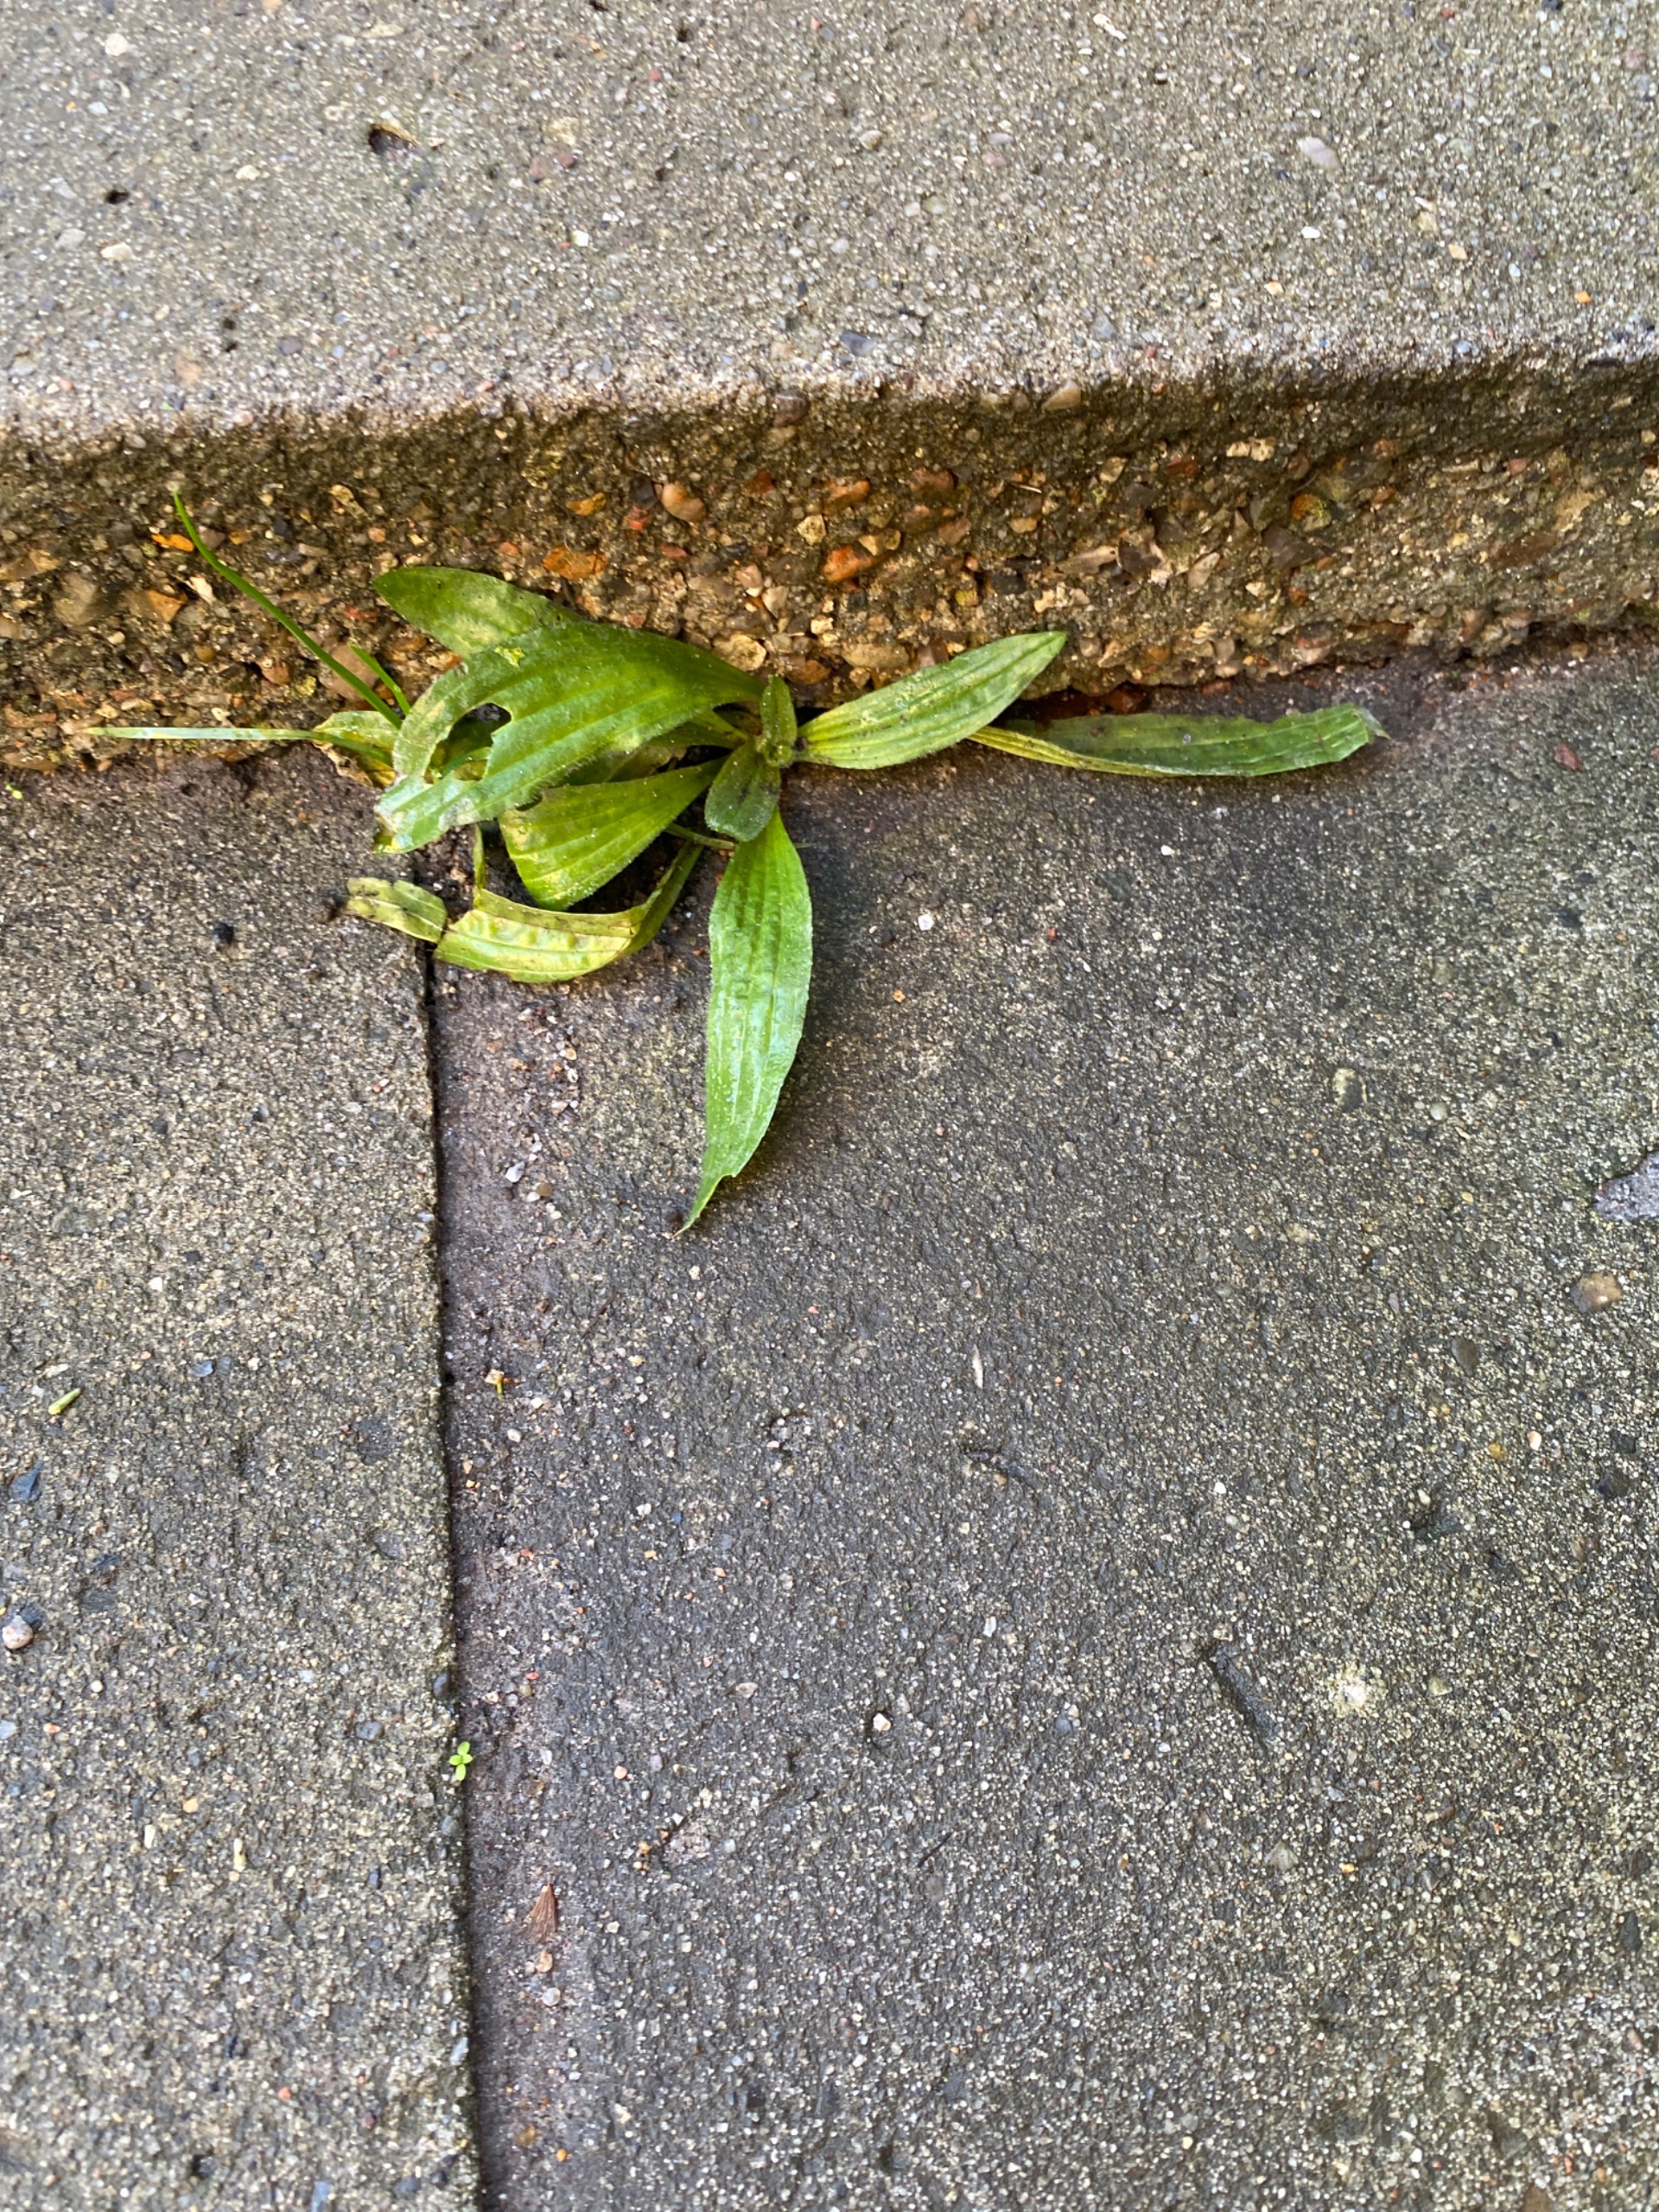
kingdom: Plantae
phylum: Tracheophyta
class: Magnoliopsida
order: Lamiales
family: Plantaginaceae
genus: Plantago
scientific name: Plantago lanceolata
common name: Lancet-vejbred
